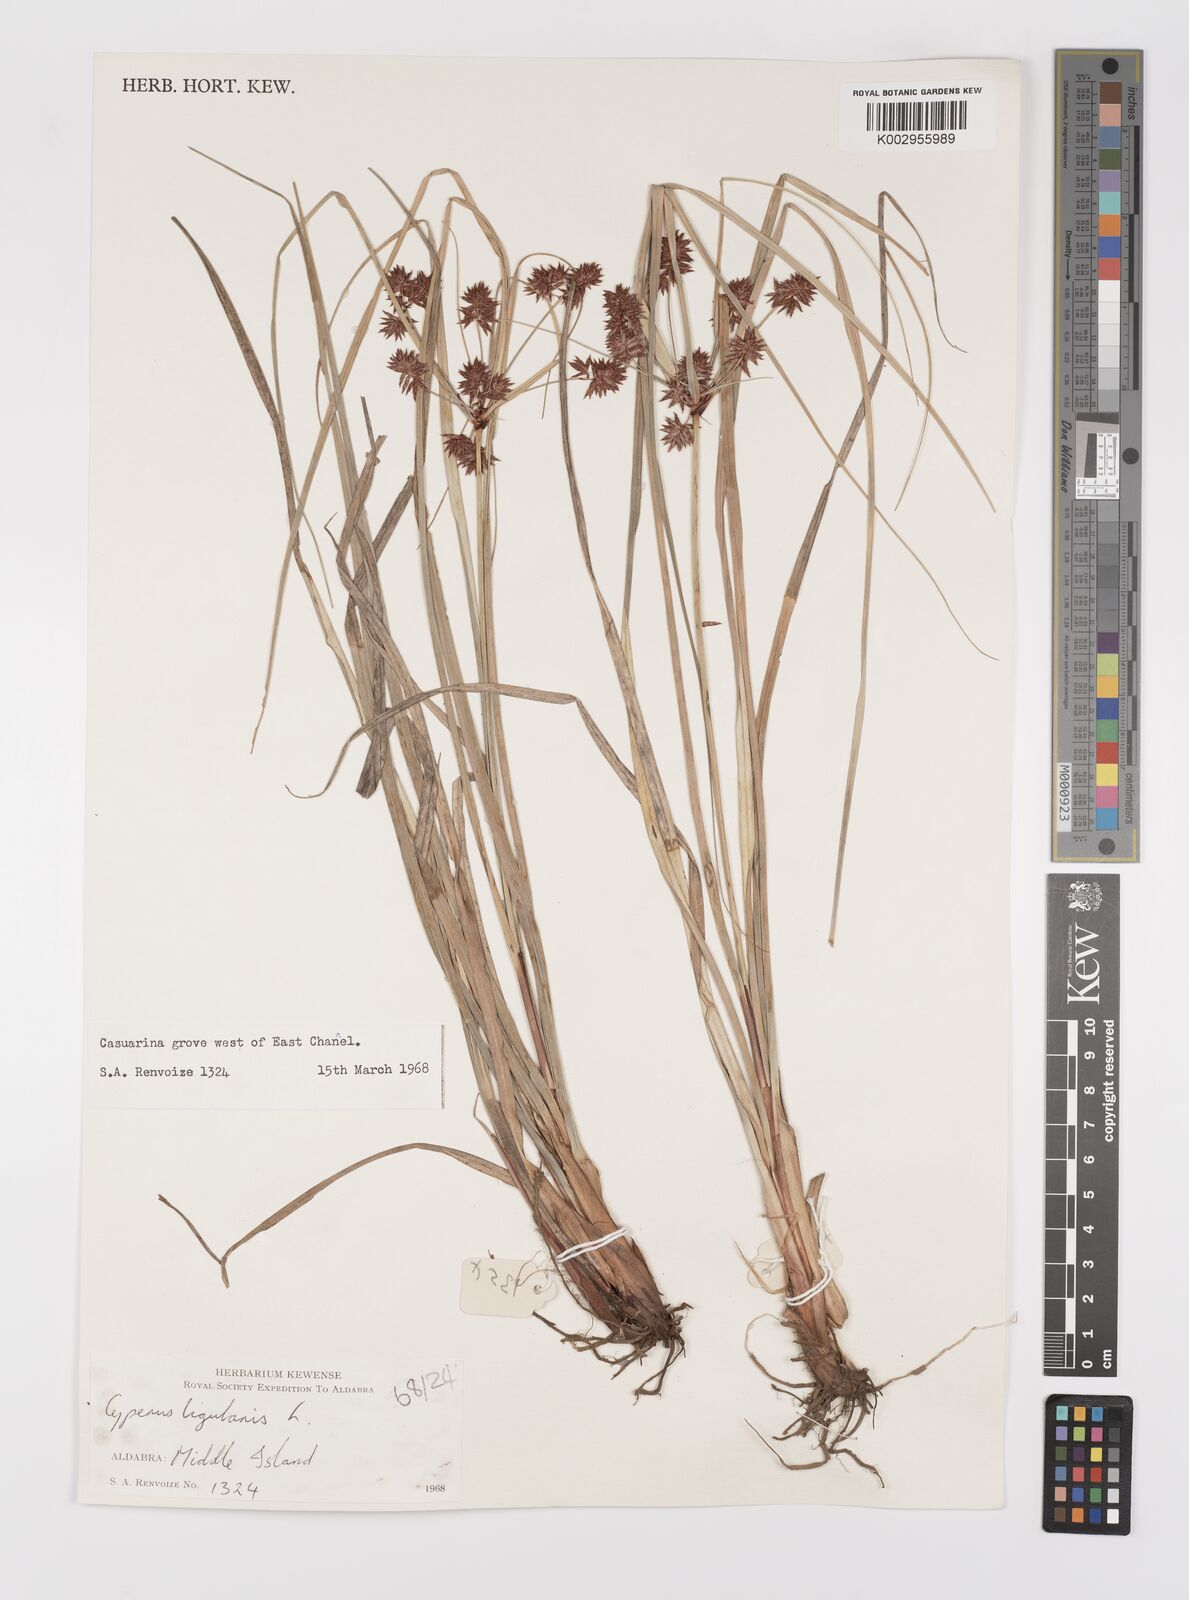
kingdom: Plantae
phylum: Tracheophyta
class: Liliopsida
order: Poales
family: Cyperaceae
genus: Cyperus
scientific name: Cyperus ligularis
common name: Swamp flat sedge
